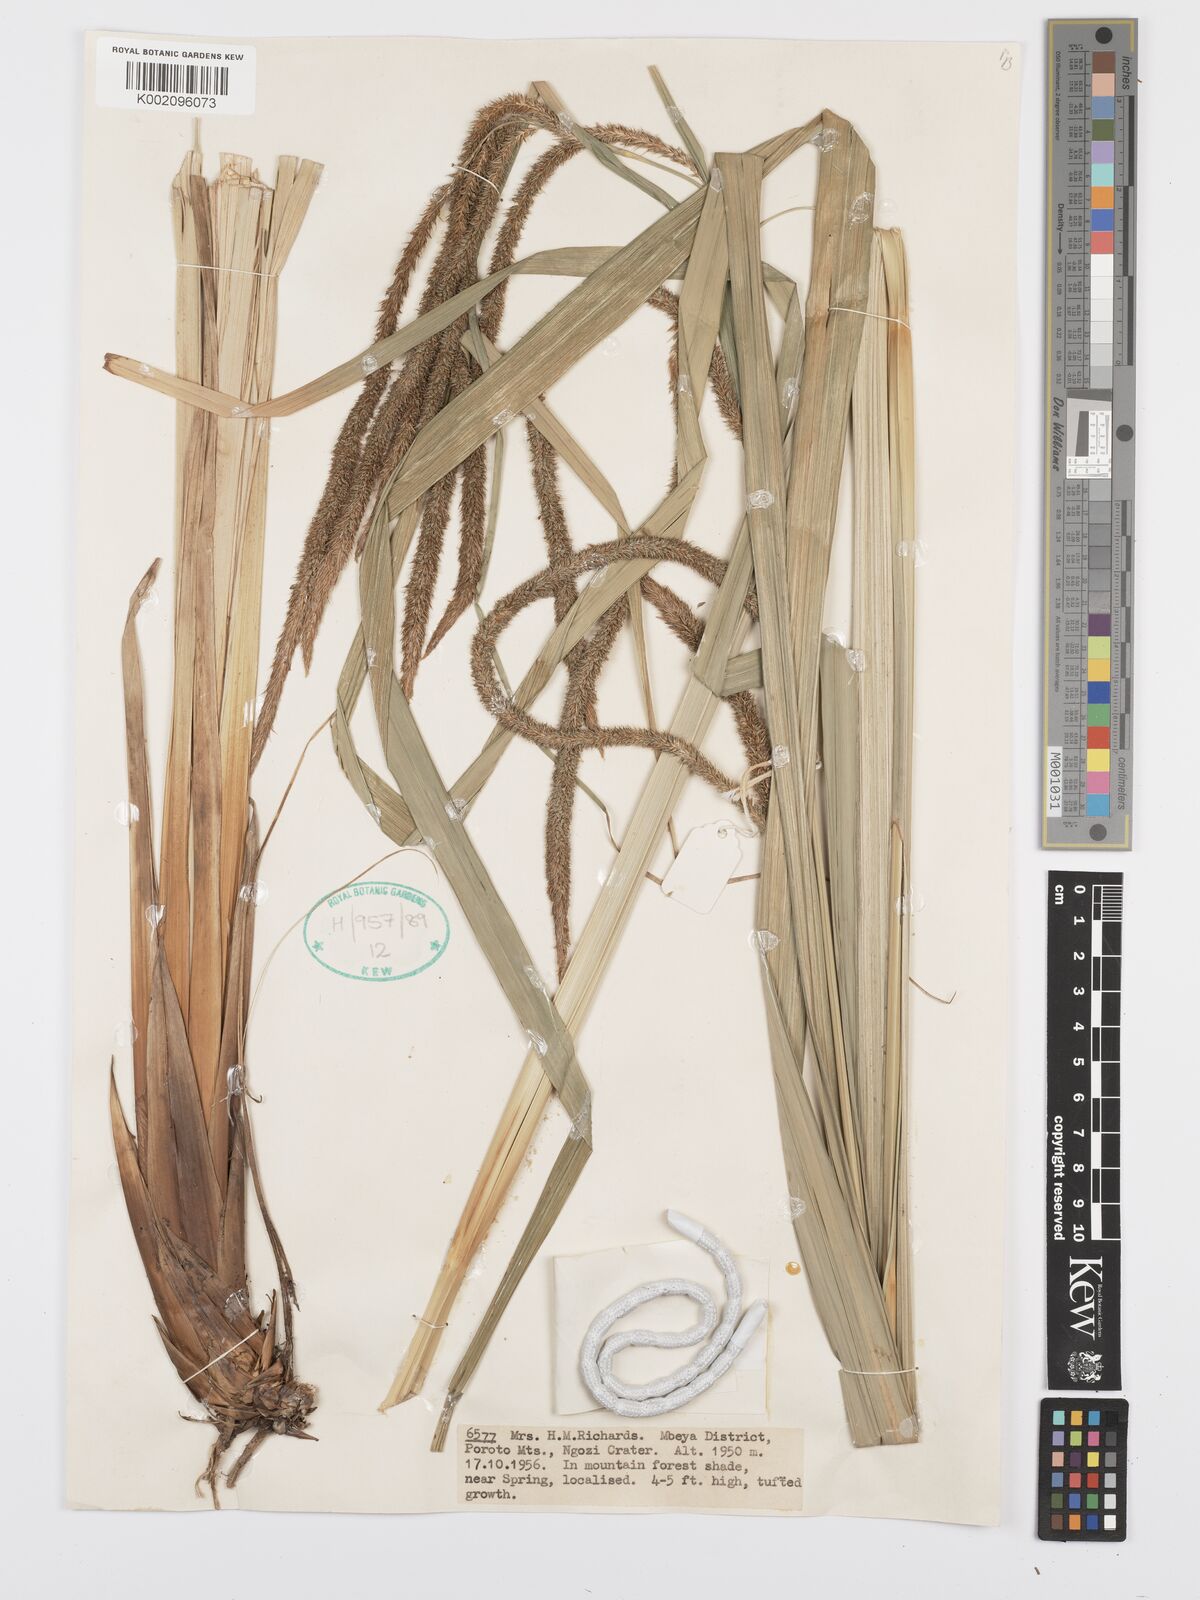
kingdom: Plantae
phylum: Tracheophyta
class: Liliopsida
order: Poales
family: Cyperaceae
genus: Carex
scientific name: Carex bequaertii
